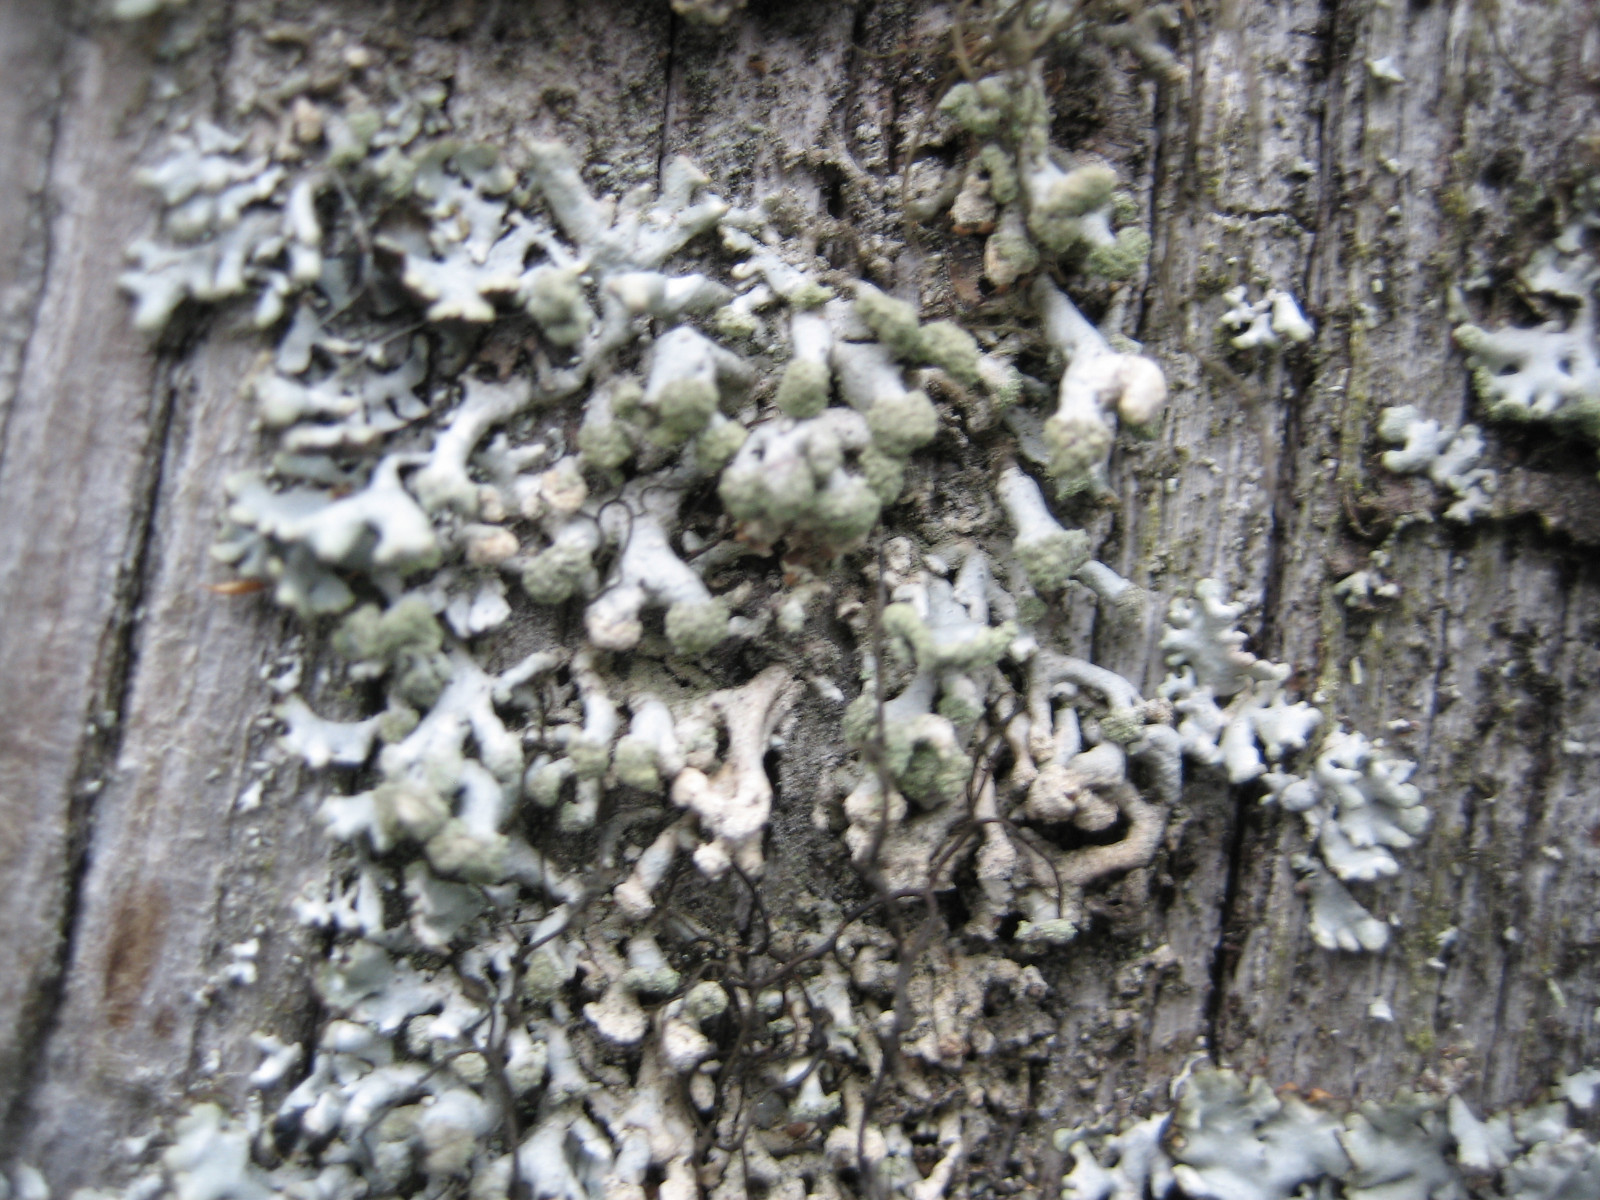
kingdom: Fungi
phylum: Ascomycota
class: Lecanoromycetes
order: Lecanorales
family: Parmeliaceae
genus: Hypogymnia
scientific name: Hypogymnia tubulosa
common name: finger-kvistlav
